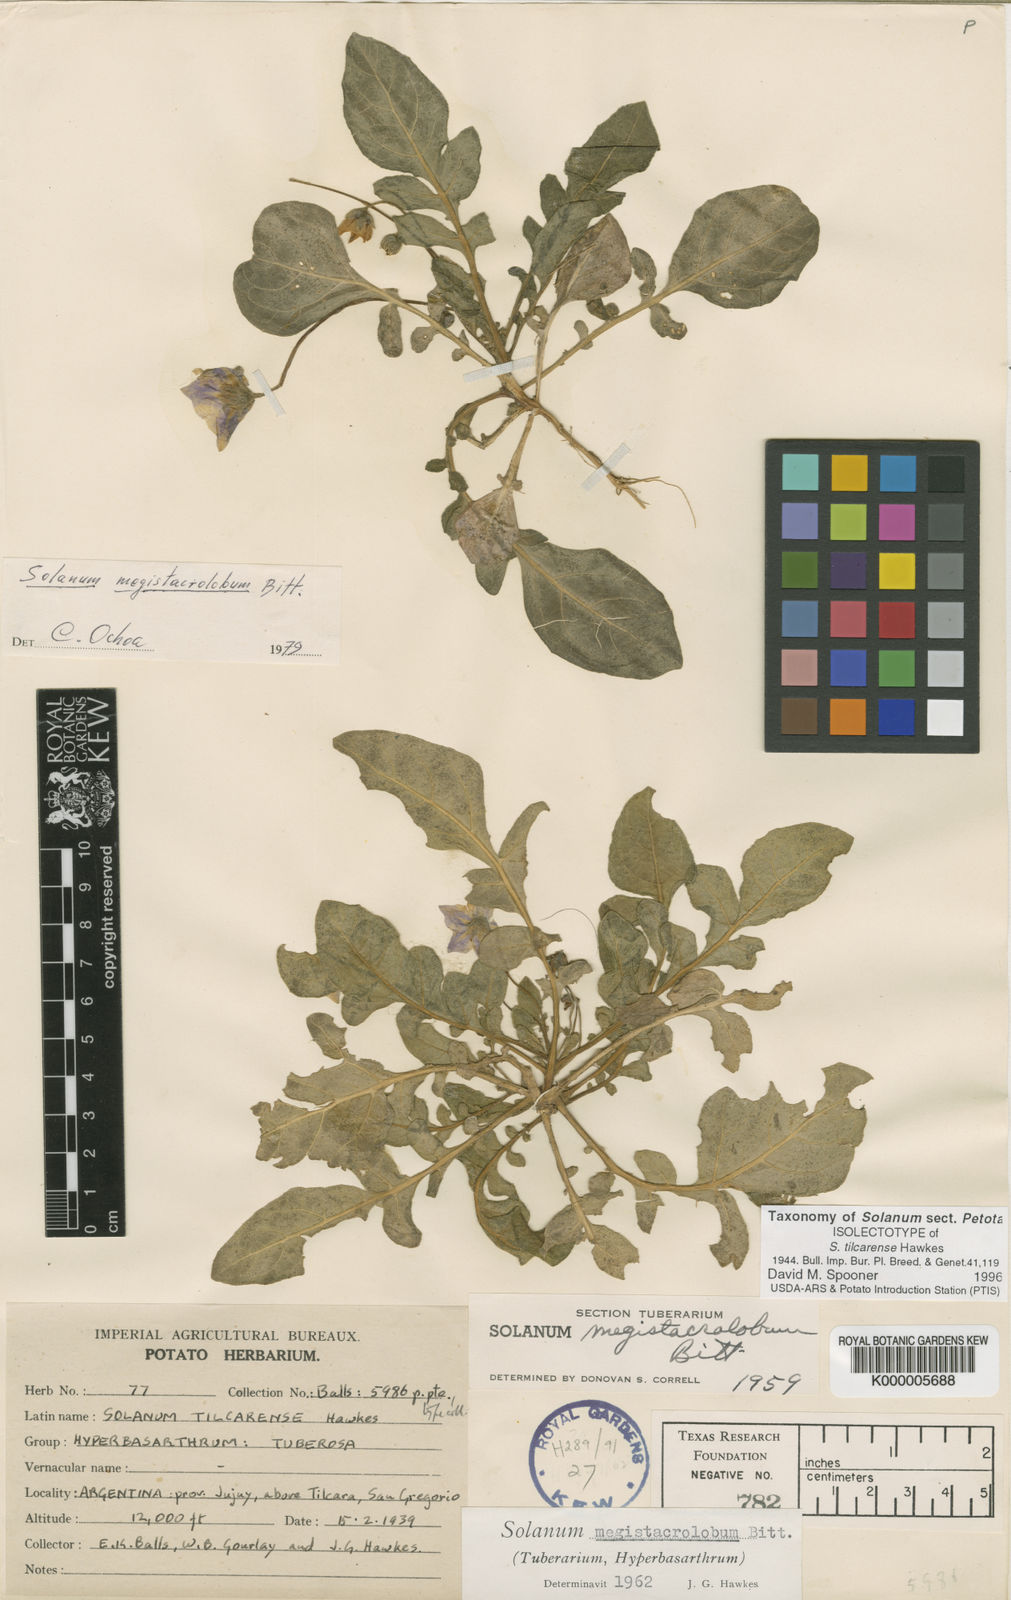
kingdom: Plantae
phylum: Tracheophyta
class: Magnoliopsida
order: Solanales
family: Solanaceae
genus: Solanum
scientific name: Solanum boliviense
